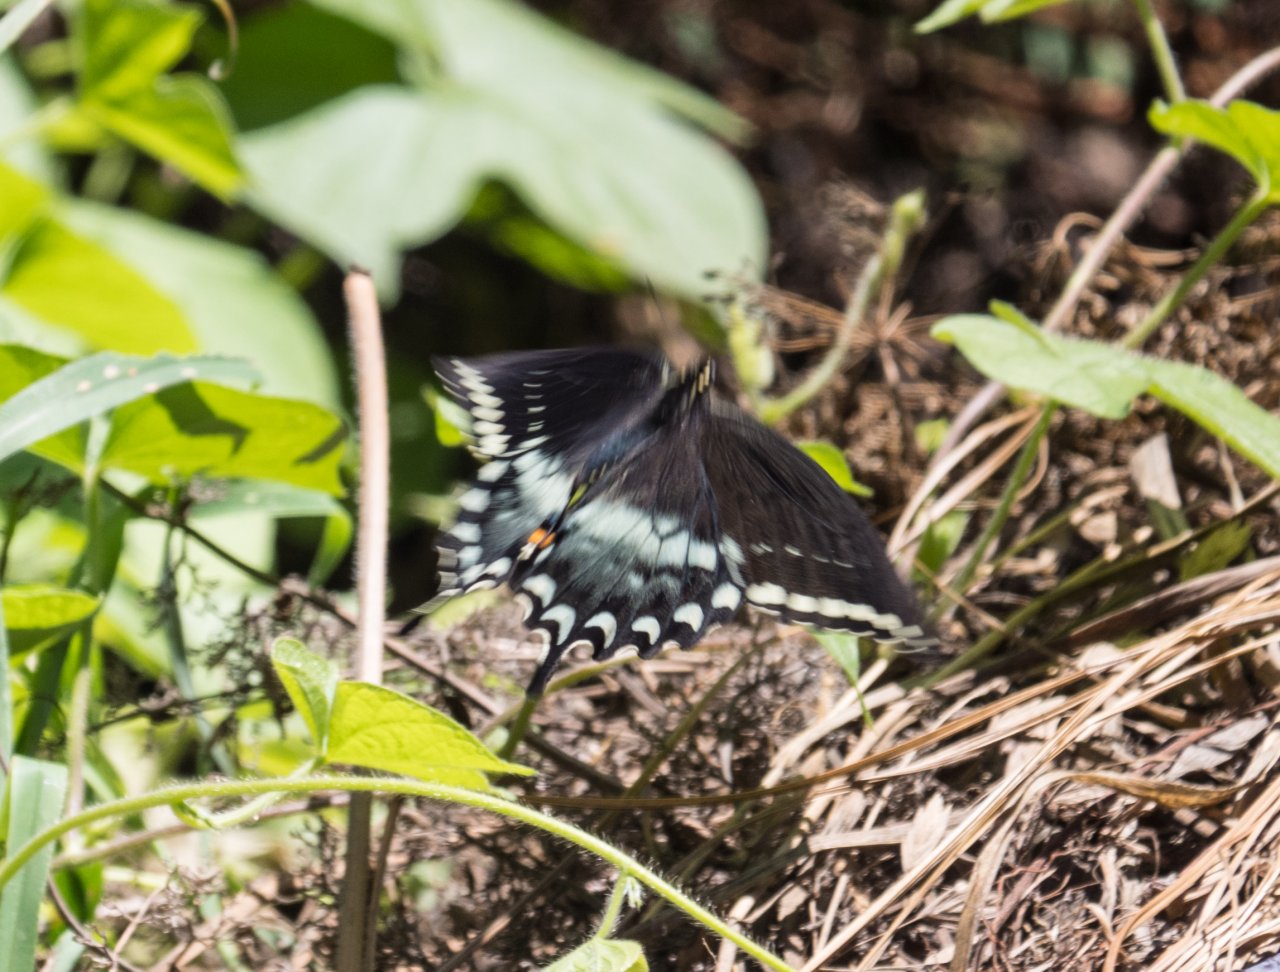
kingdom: Animalia
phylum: Arthropoda
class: Insecta
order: Lepidoptera
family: Papilionidae
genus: Pterourus
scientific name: Pterourus troilus
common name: Spicebush Swallowtail
